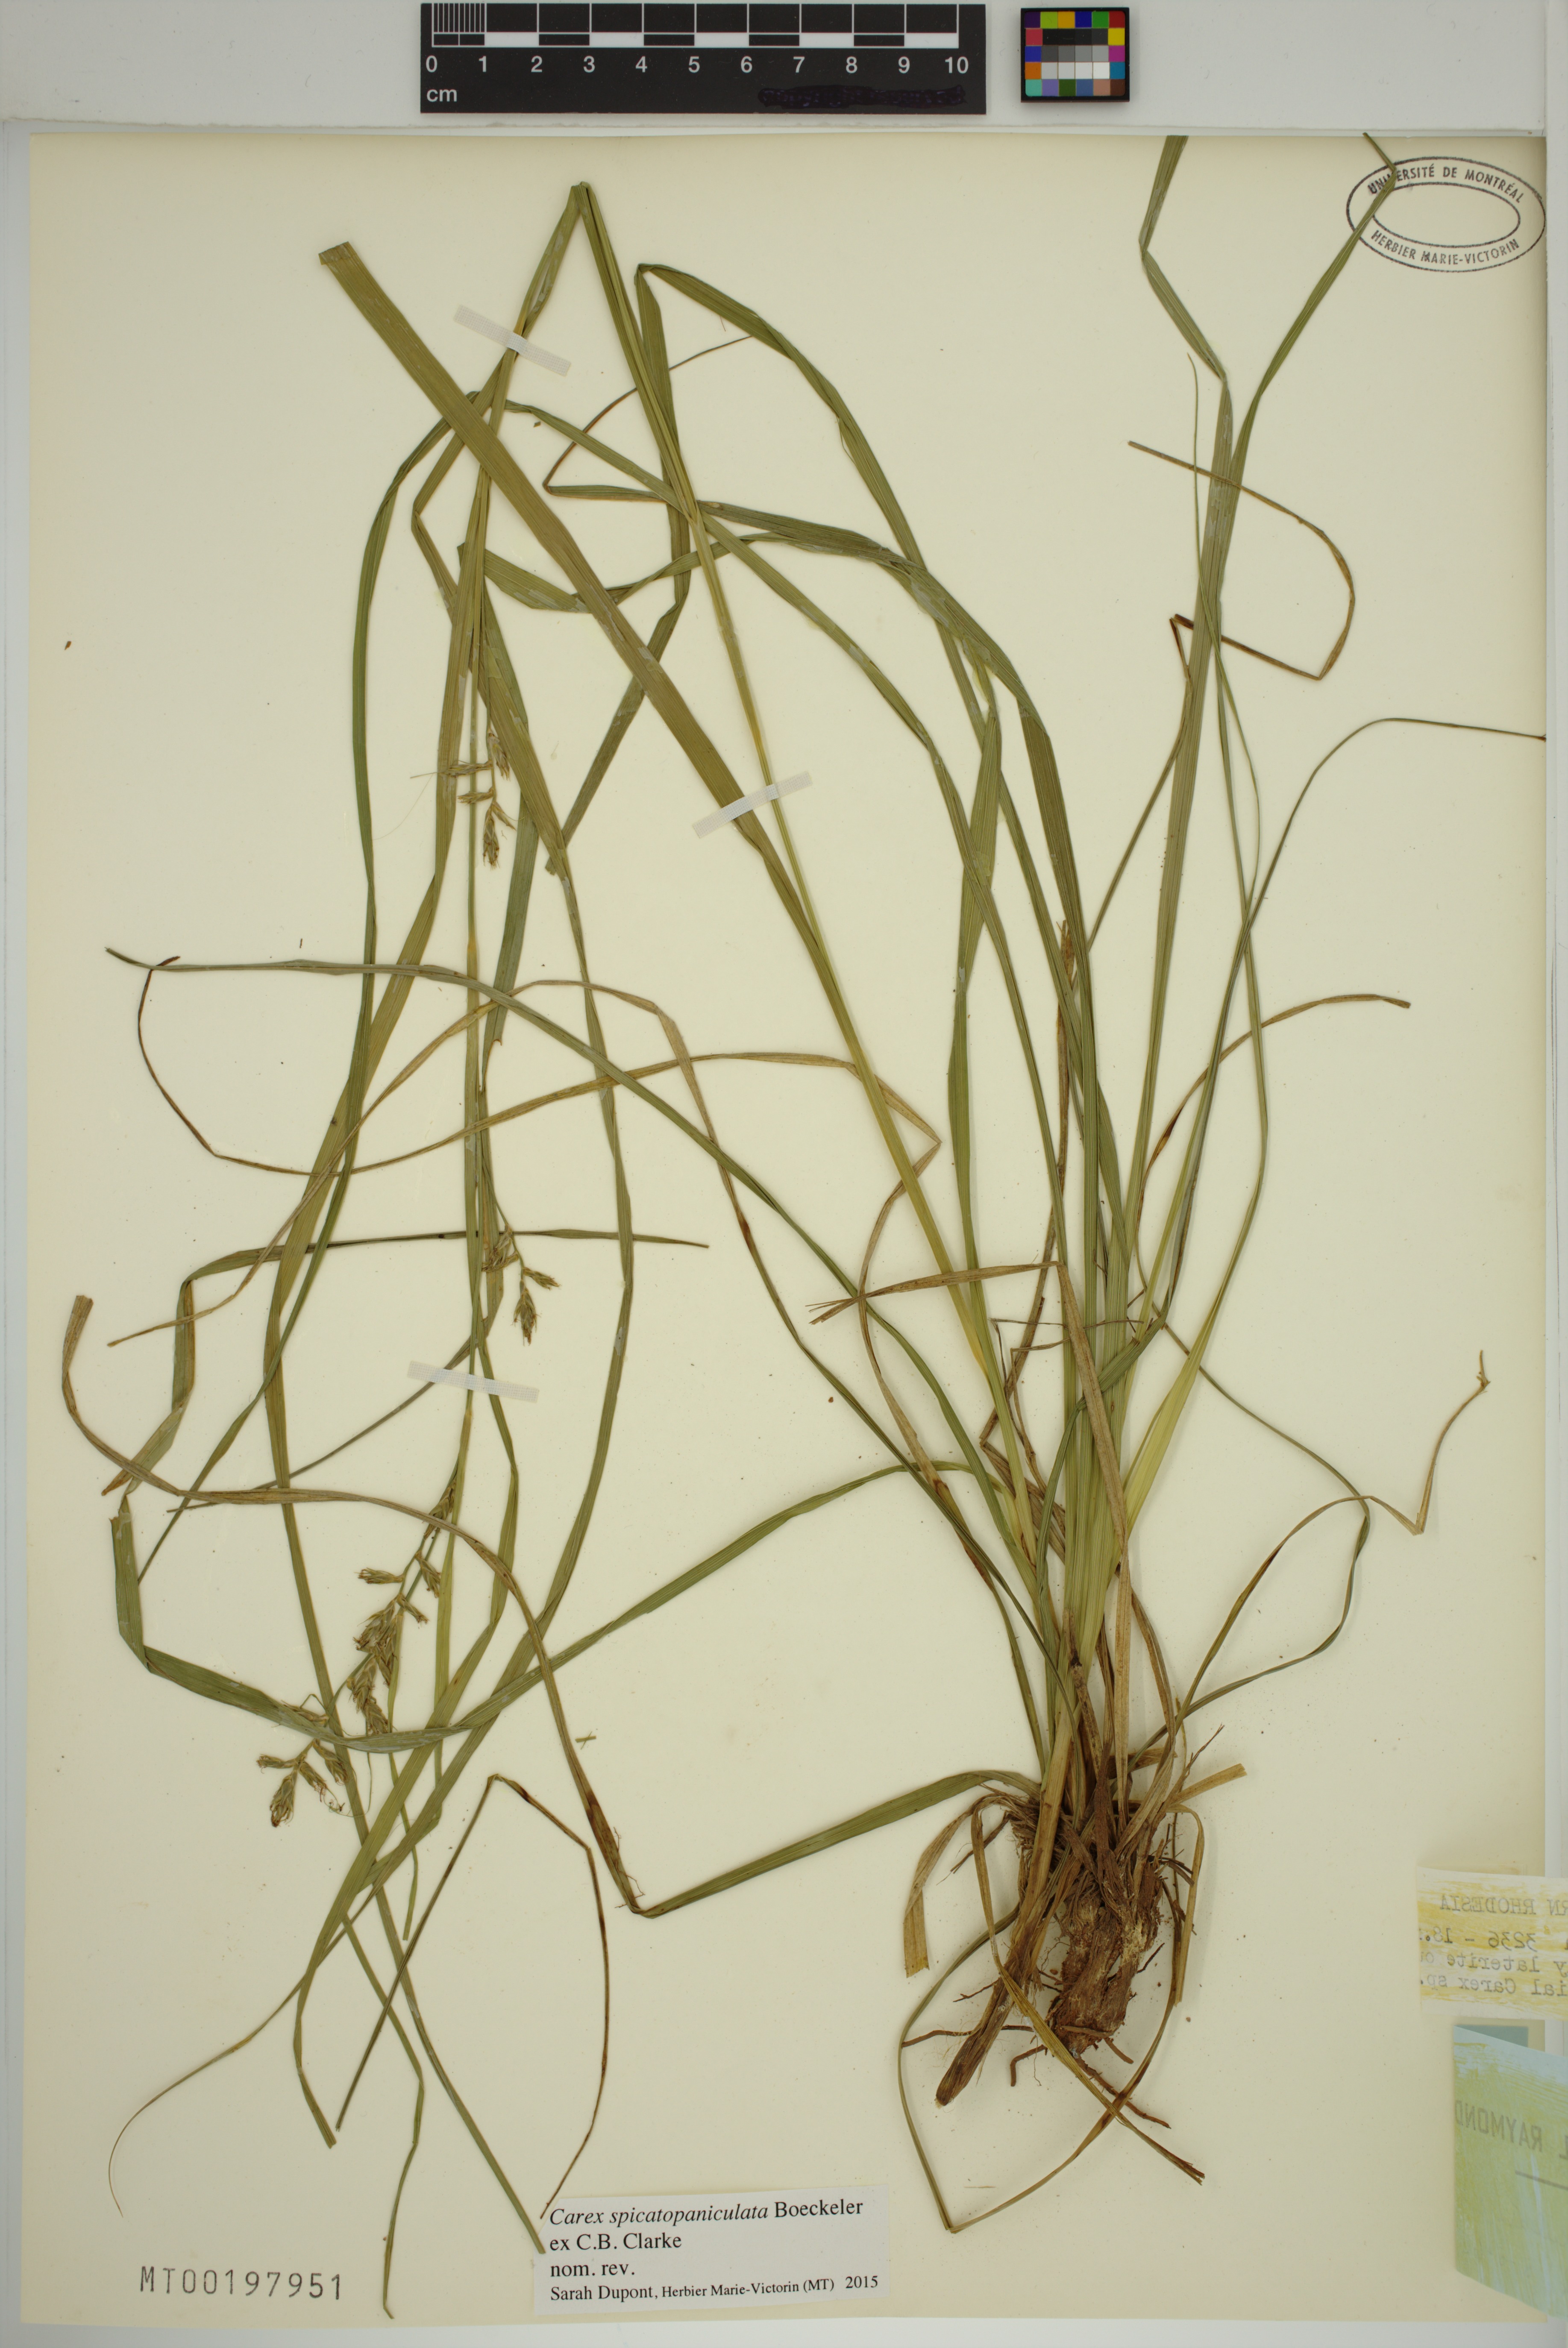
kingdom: Plantae
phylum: Tracheophyta
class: Liliopsida
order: Poales
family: Cyperaceae
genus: Carex
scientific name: Carex spicatopaniculata
